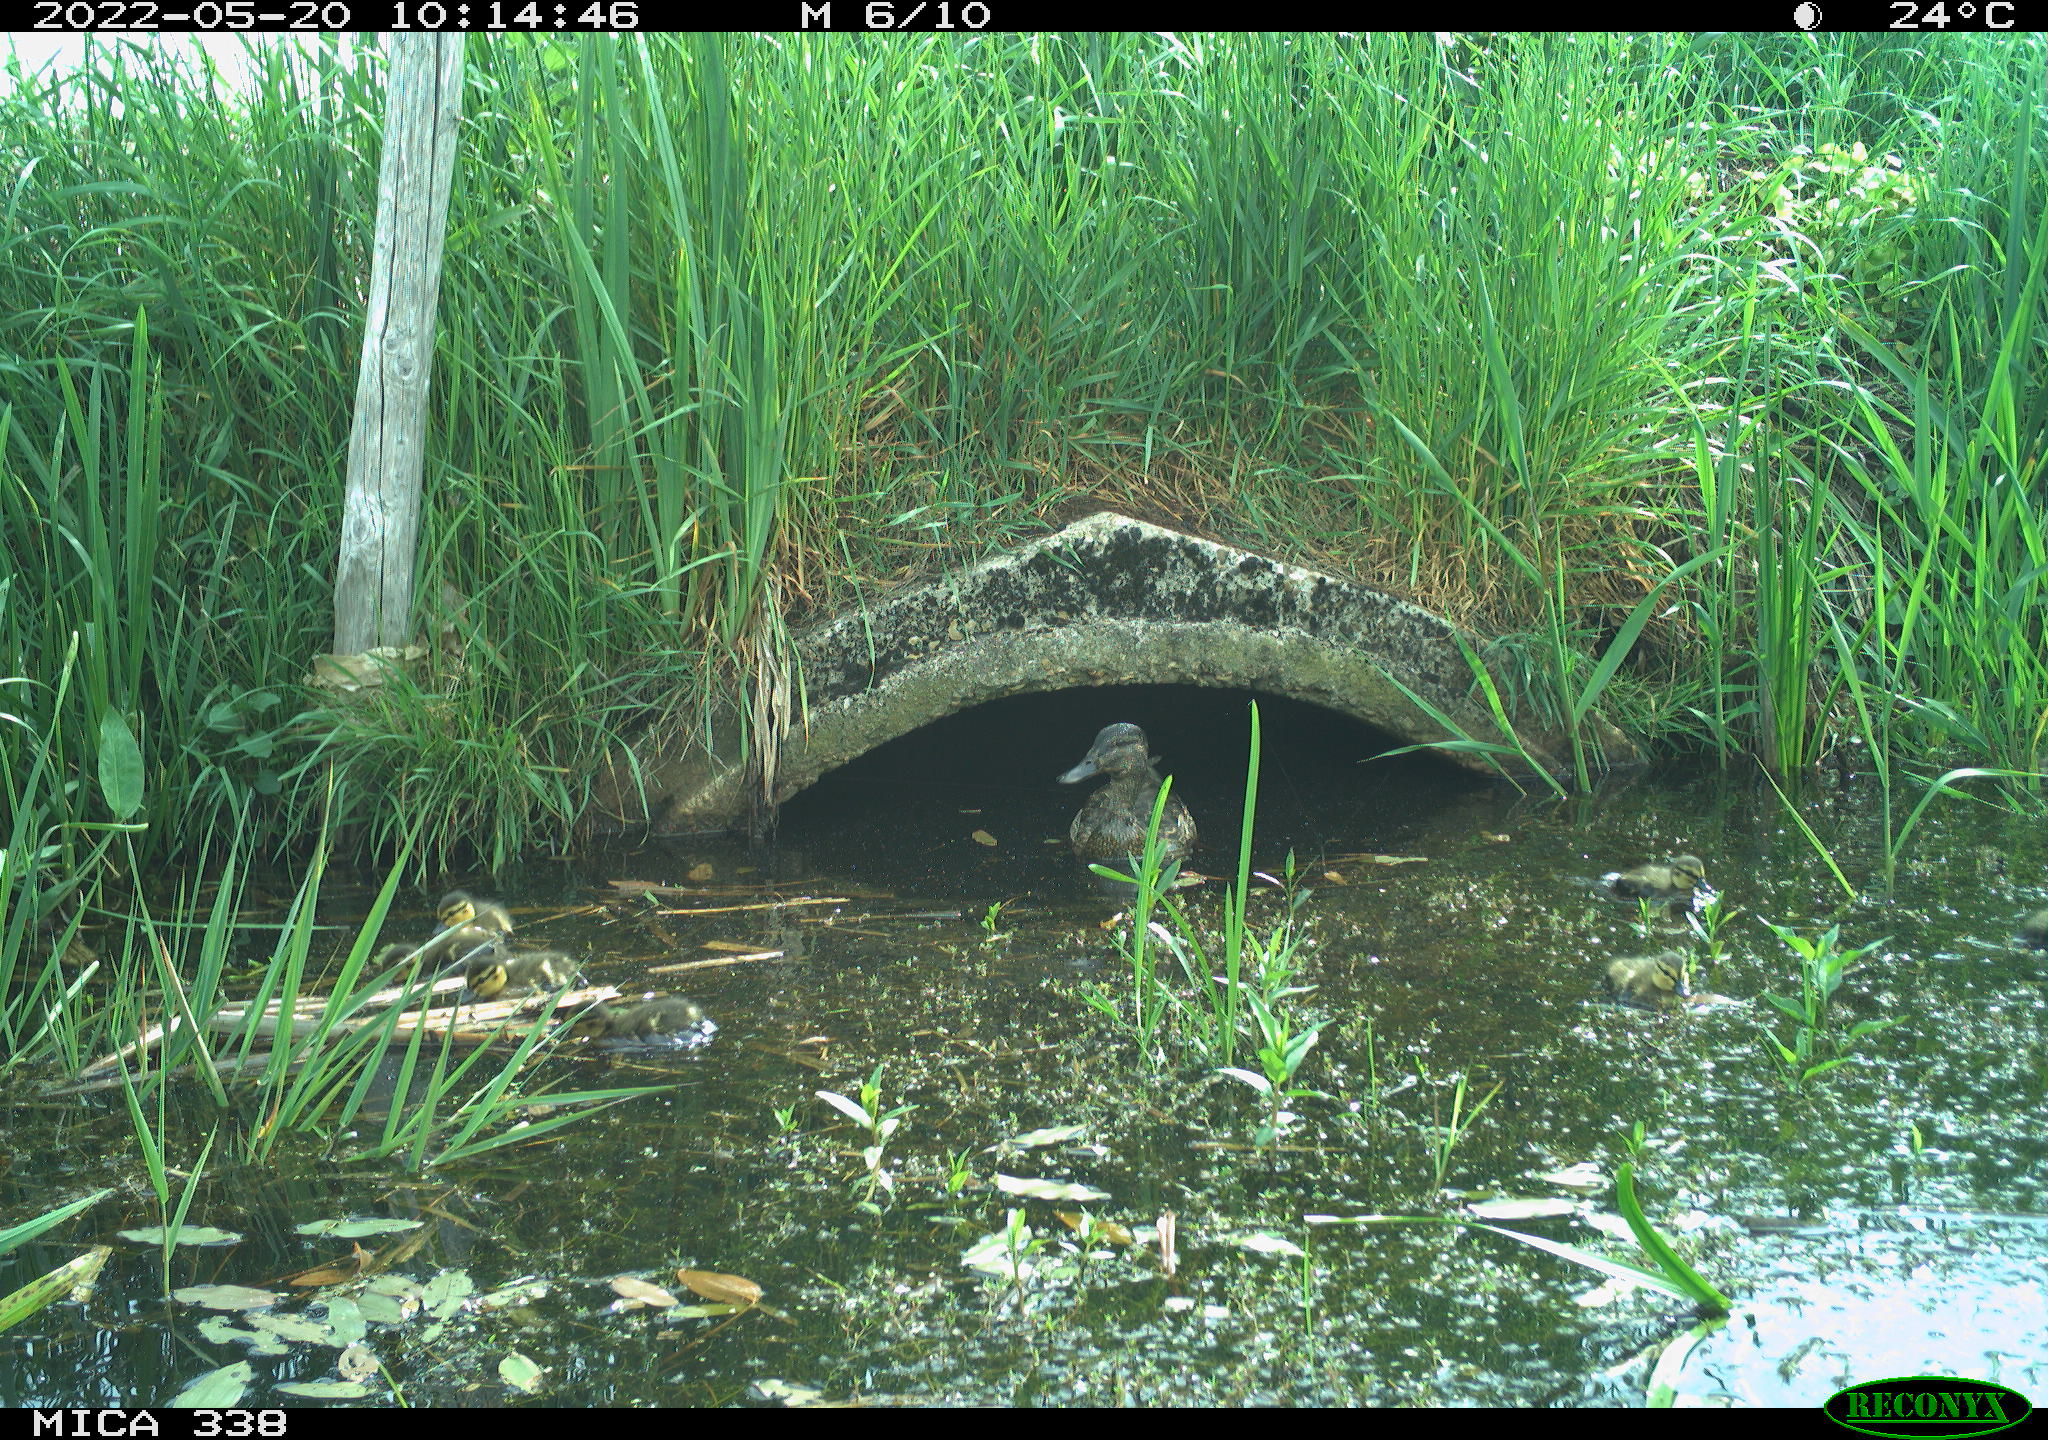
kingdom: Animalia
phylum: Chordata
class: Aves
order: Anseriformes
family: Anatidae
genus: Anas
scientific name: Anas platyrhynchos
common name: Mallard
